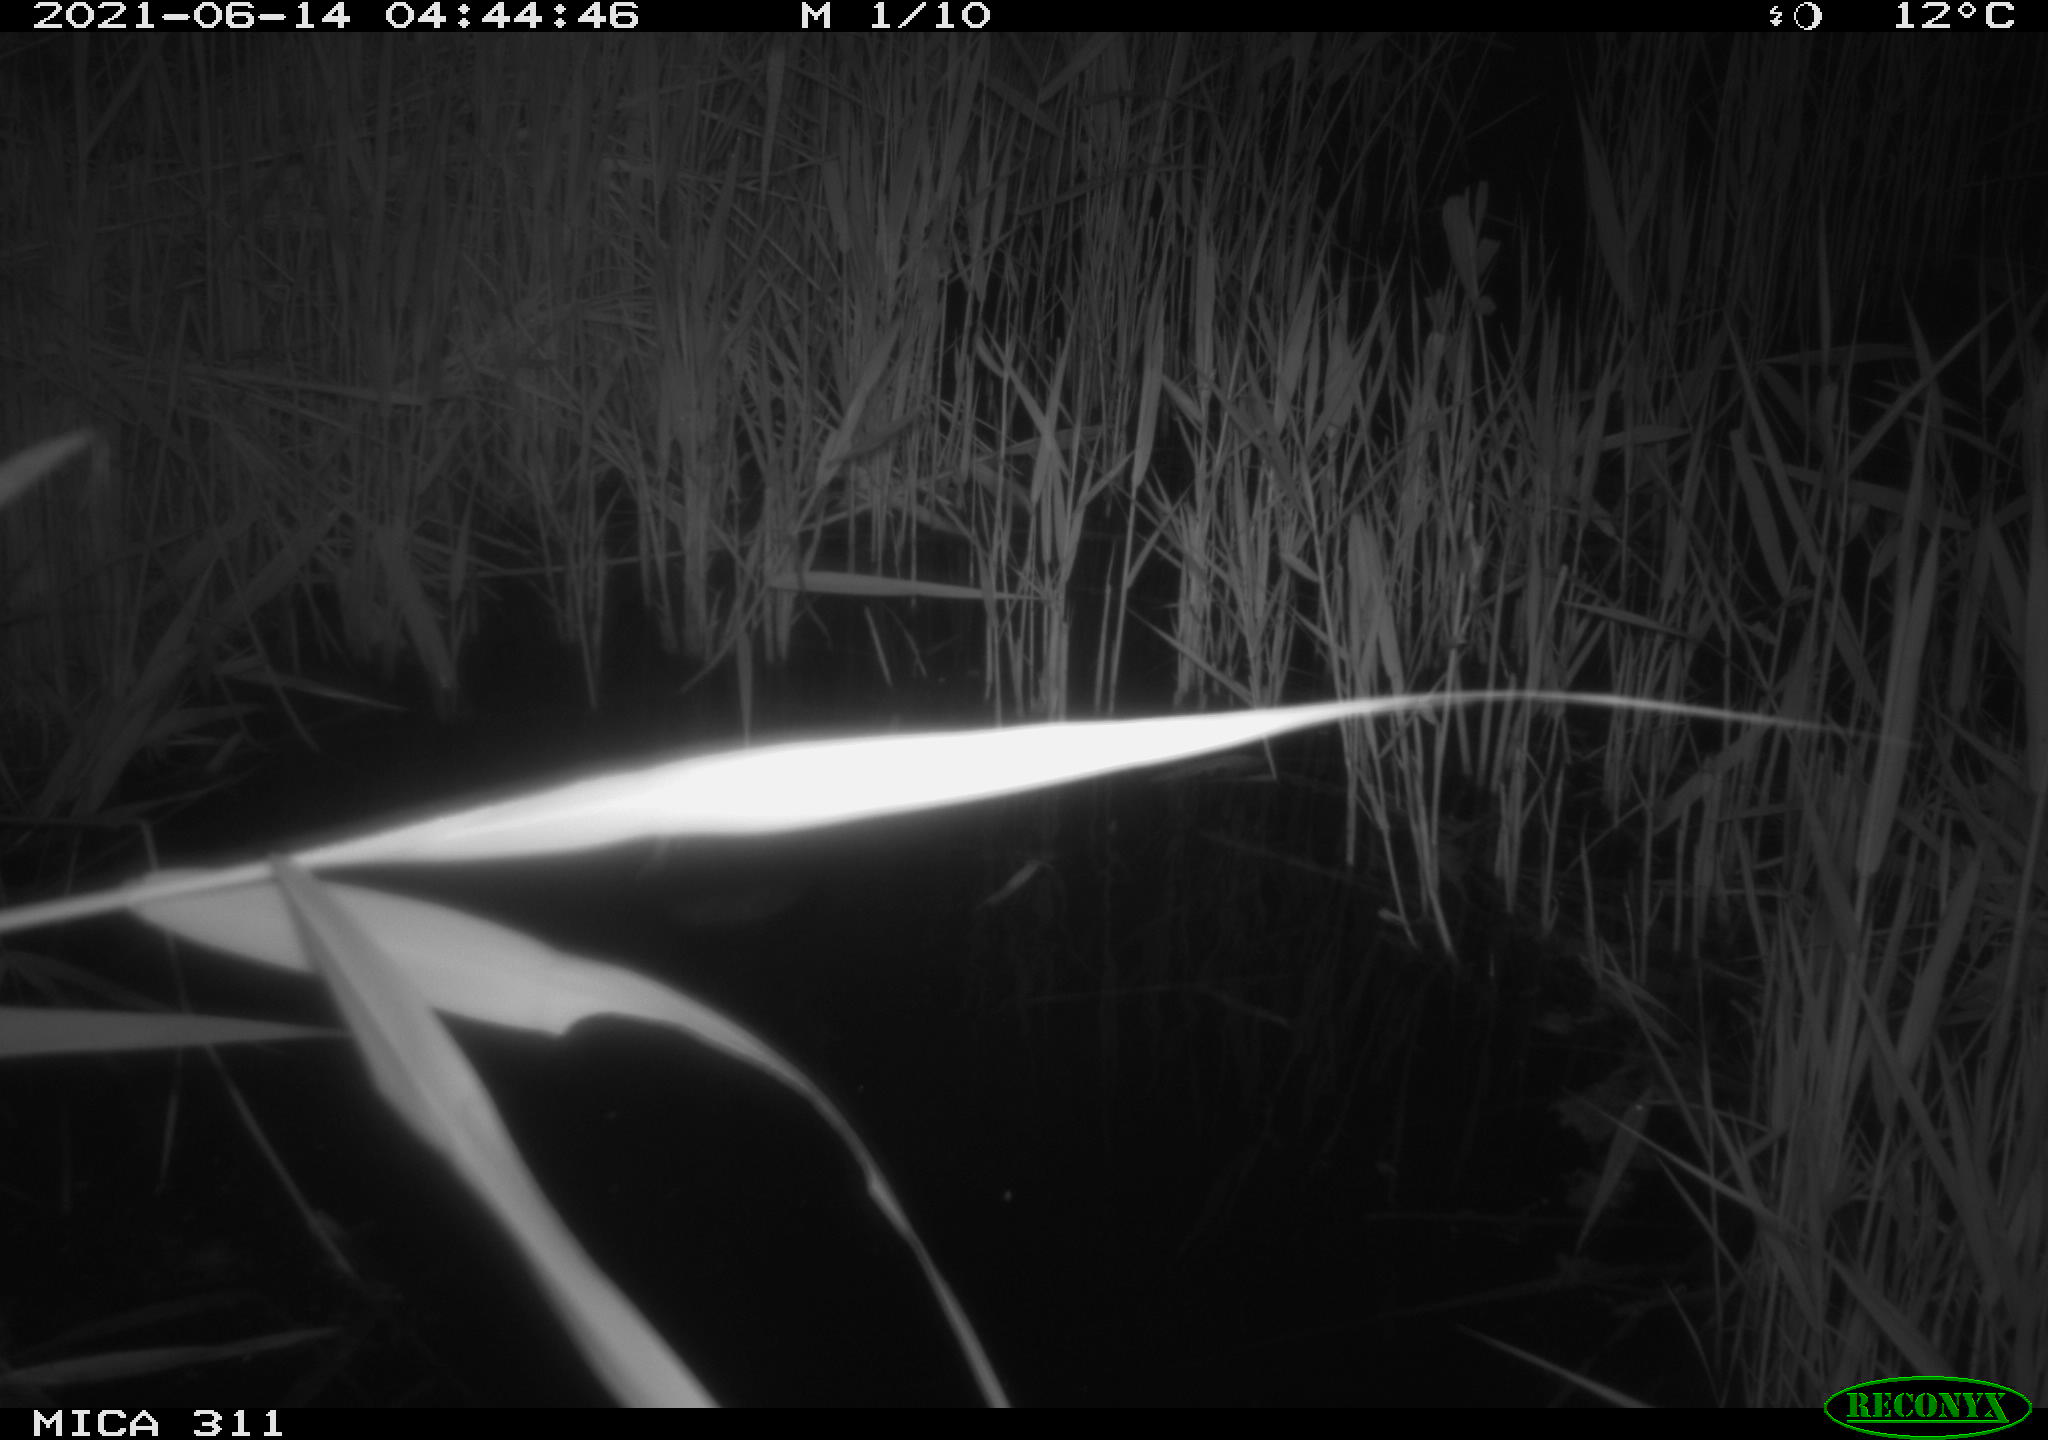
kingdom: Animalia
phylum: Chordata
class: Aves
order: Gruiformes
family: Rallidae
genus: Gallinula
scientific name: Gallinula chloropus
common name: Common moorhen
